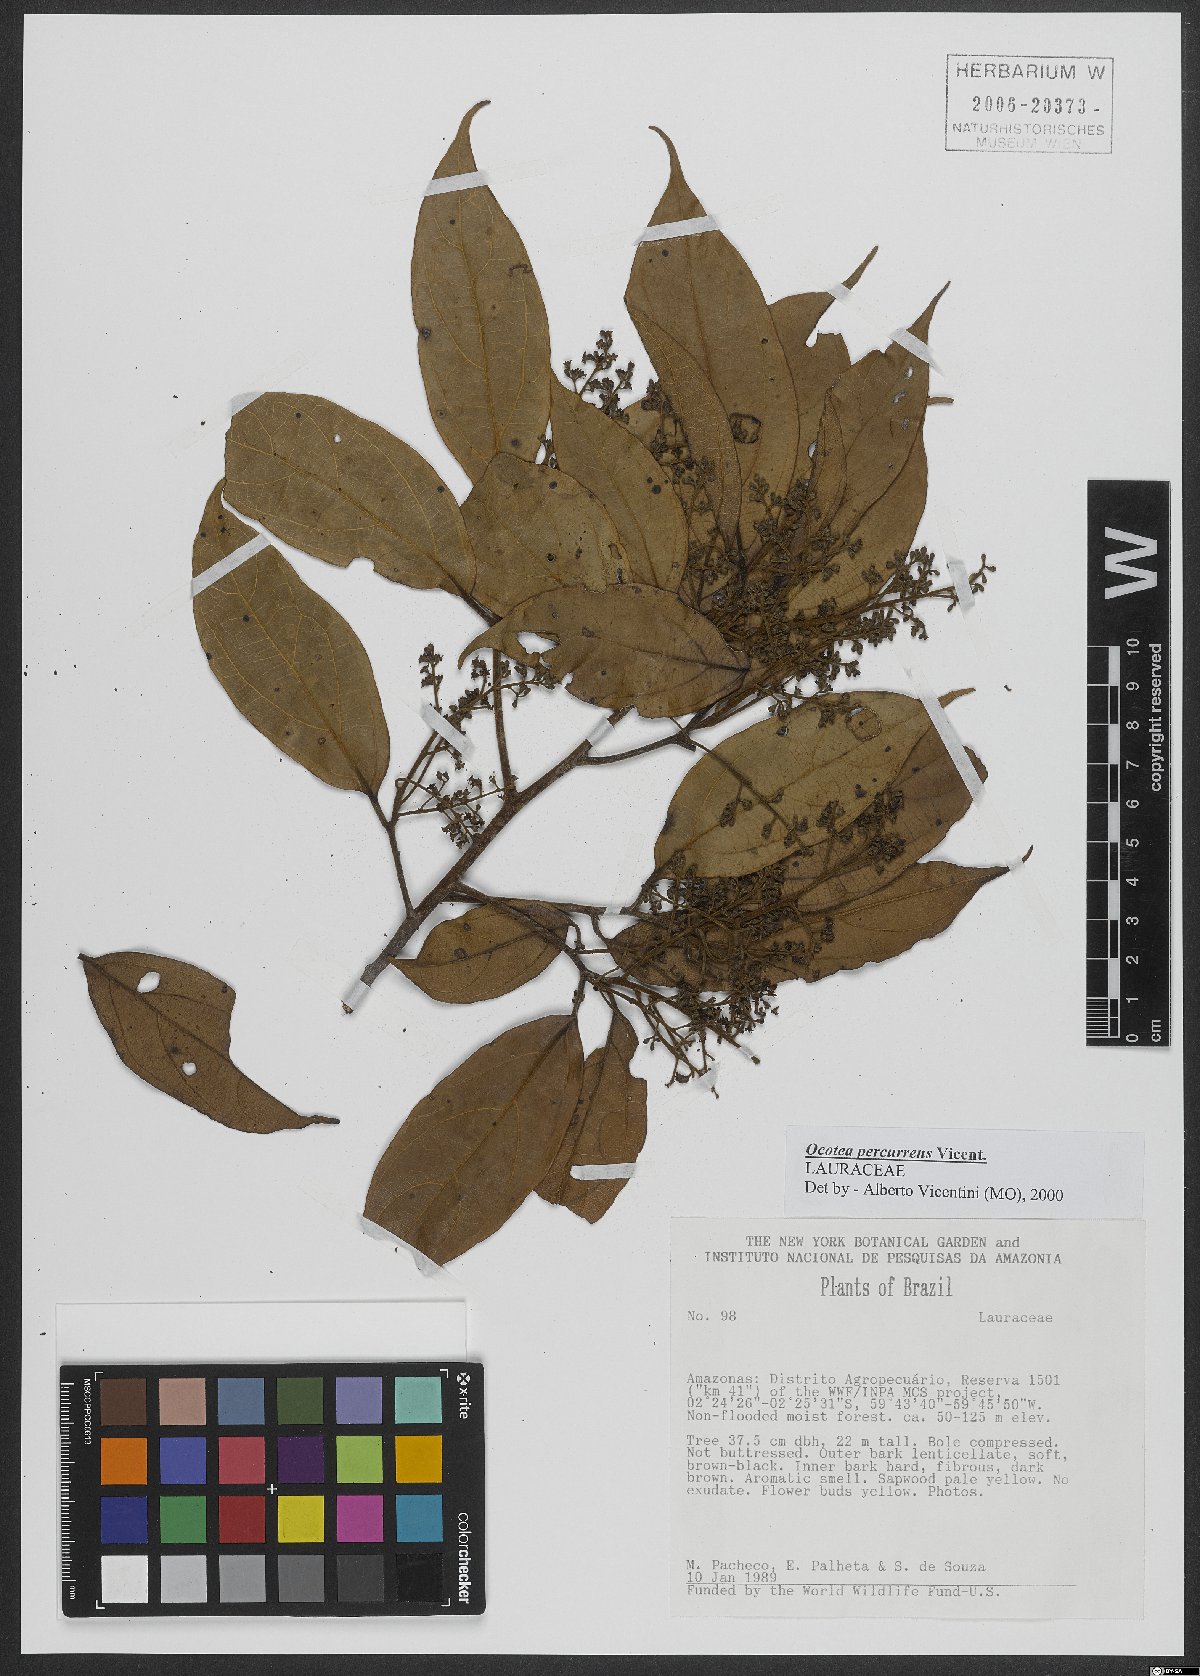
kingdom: Plantae
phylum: Tracheophyta
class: Magnoliopsida
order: Laurales
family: Lauraceae
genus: Ocotea
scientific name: Ocotea percurrens
